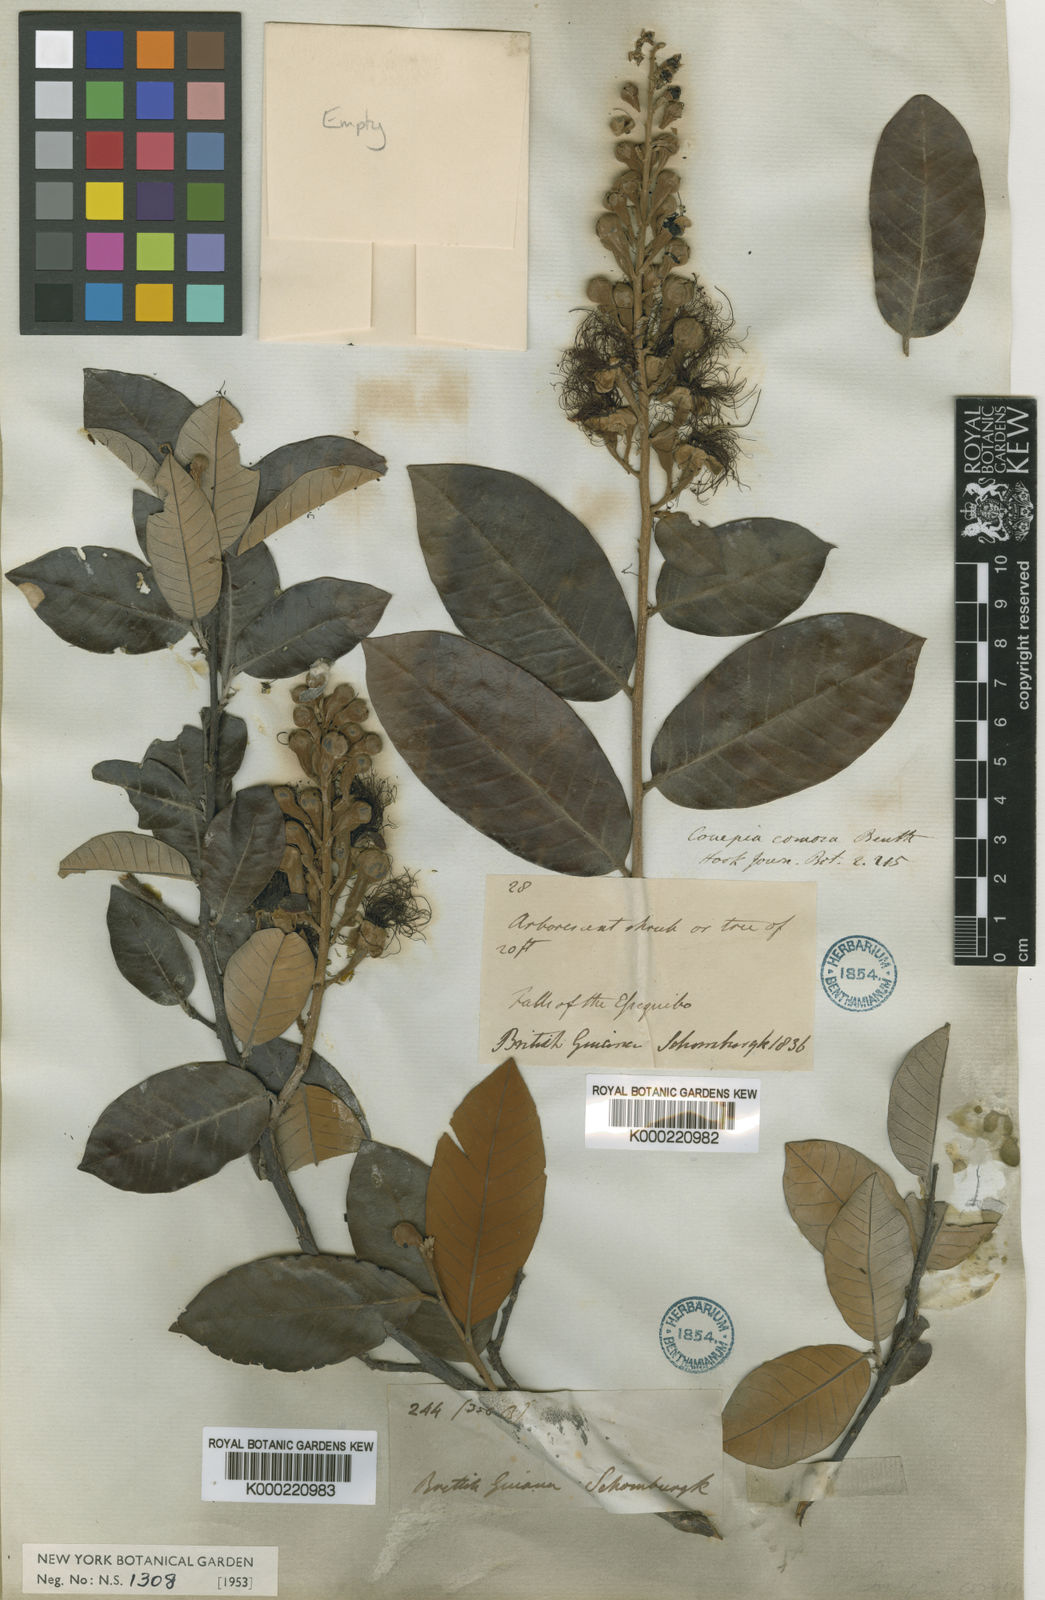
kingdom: Plantae
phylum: Tracheophyta
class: Magnoliopsida
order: Malpighiales
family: Chrysobalanaceae
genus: Couepia
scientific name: Couepia comosa
